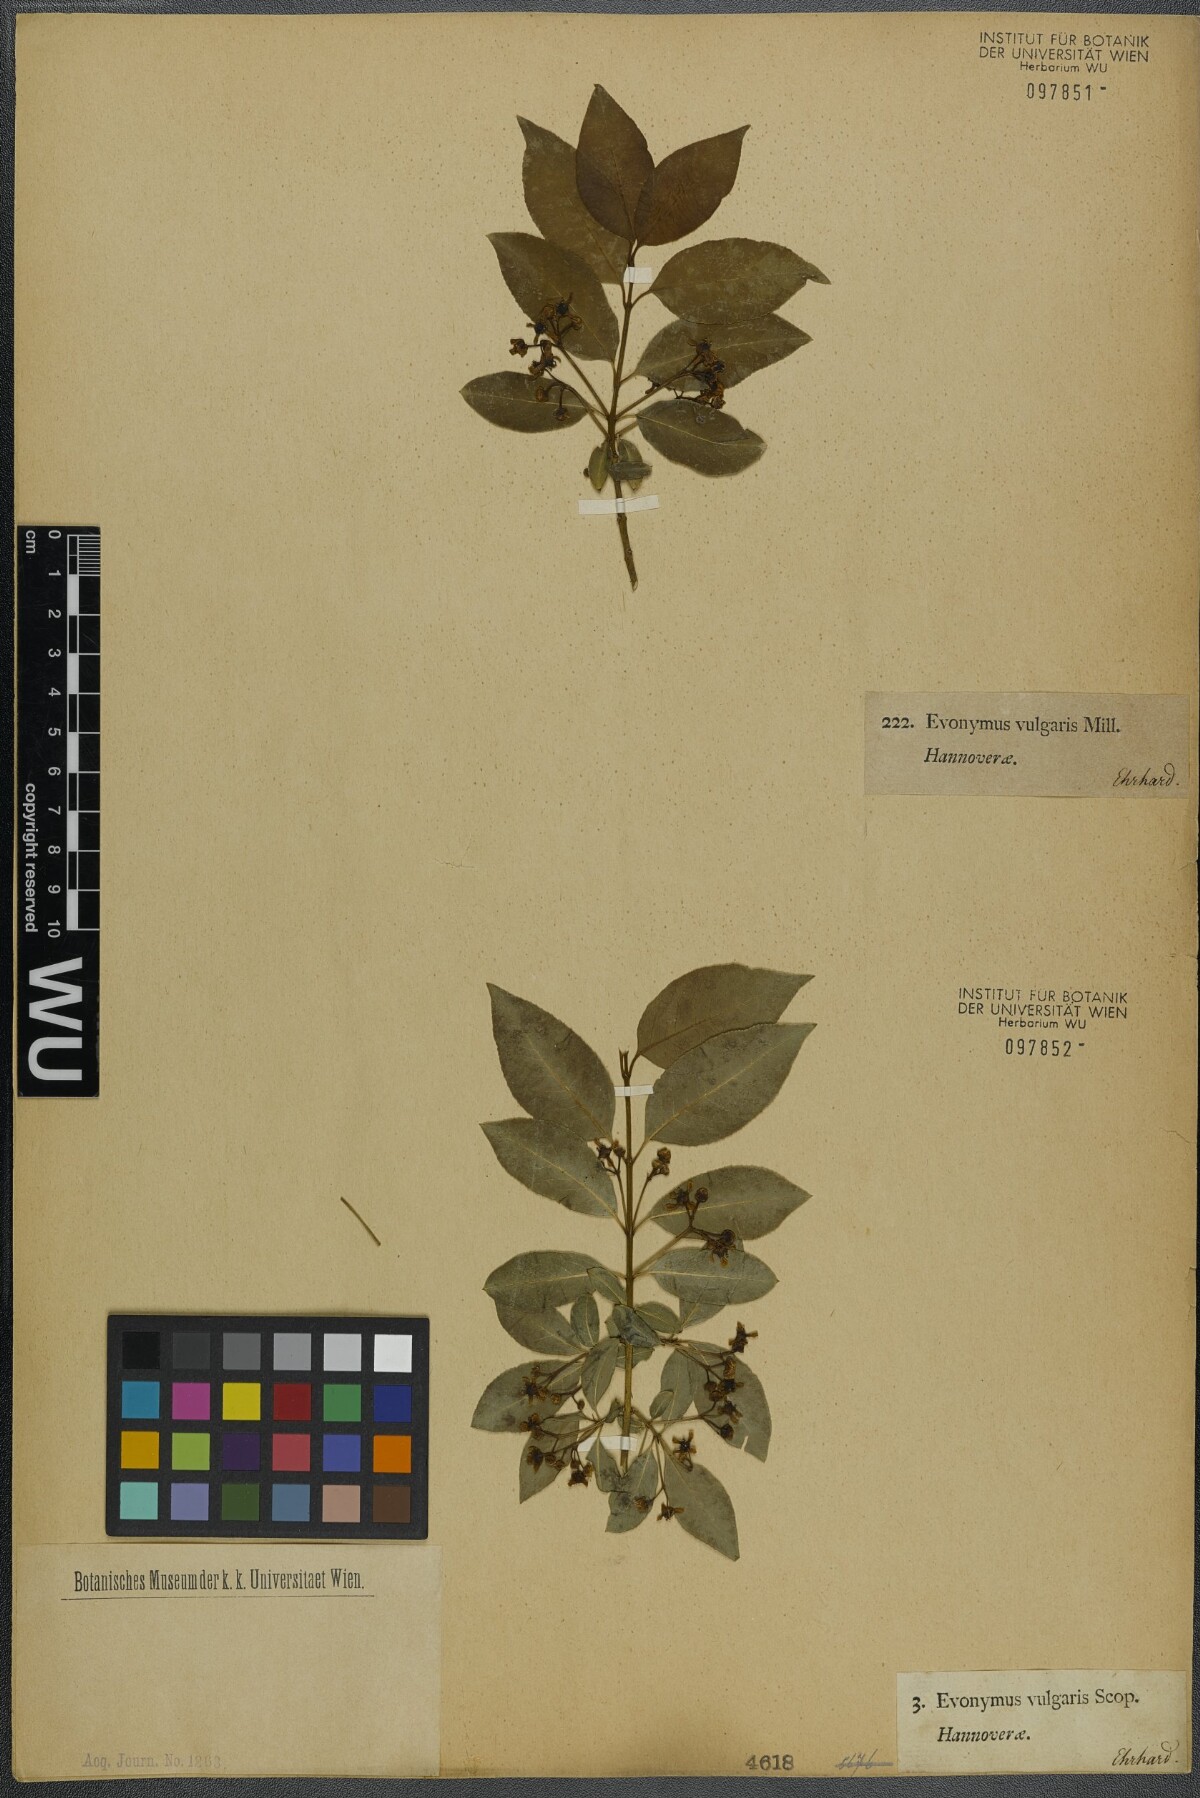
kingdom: Plantae
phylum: Tracheophyta
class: Magnoliopsida
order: Celastrales
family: Celastraceae
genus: Euonymus
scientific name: Euonymus europaeus
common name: Spindle
